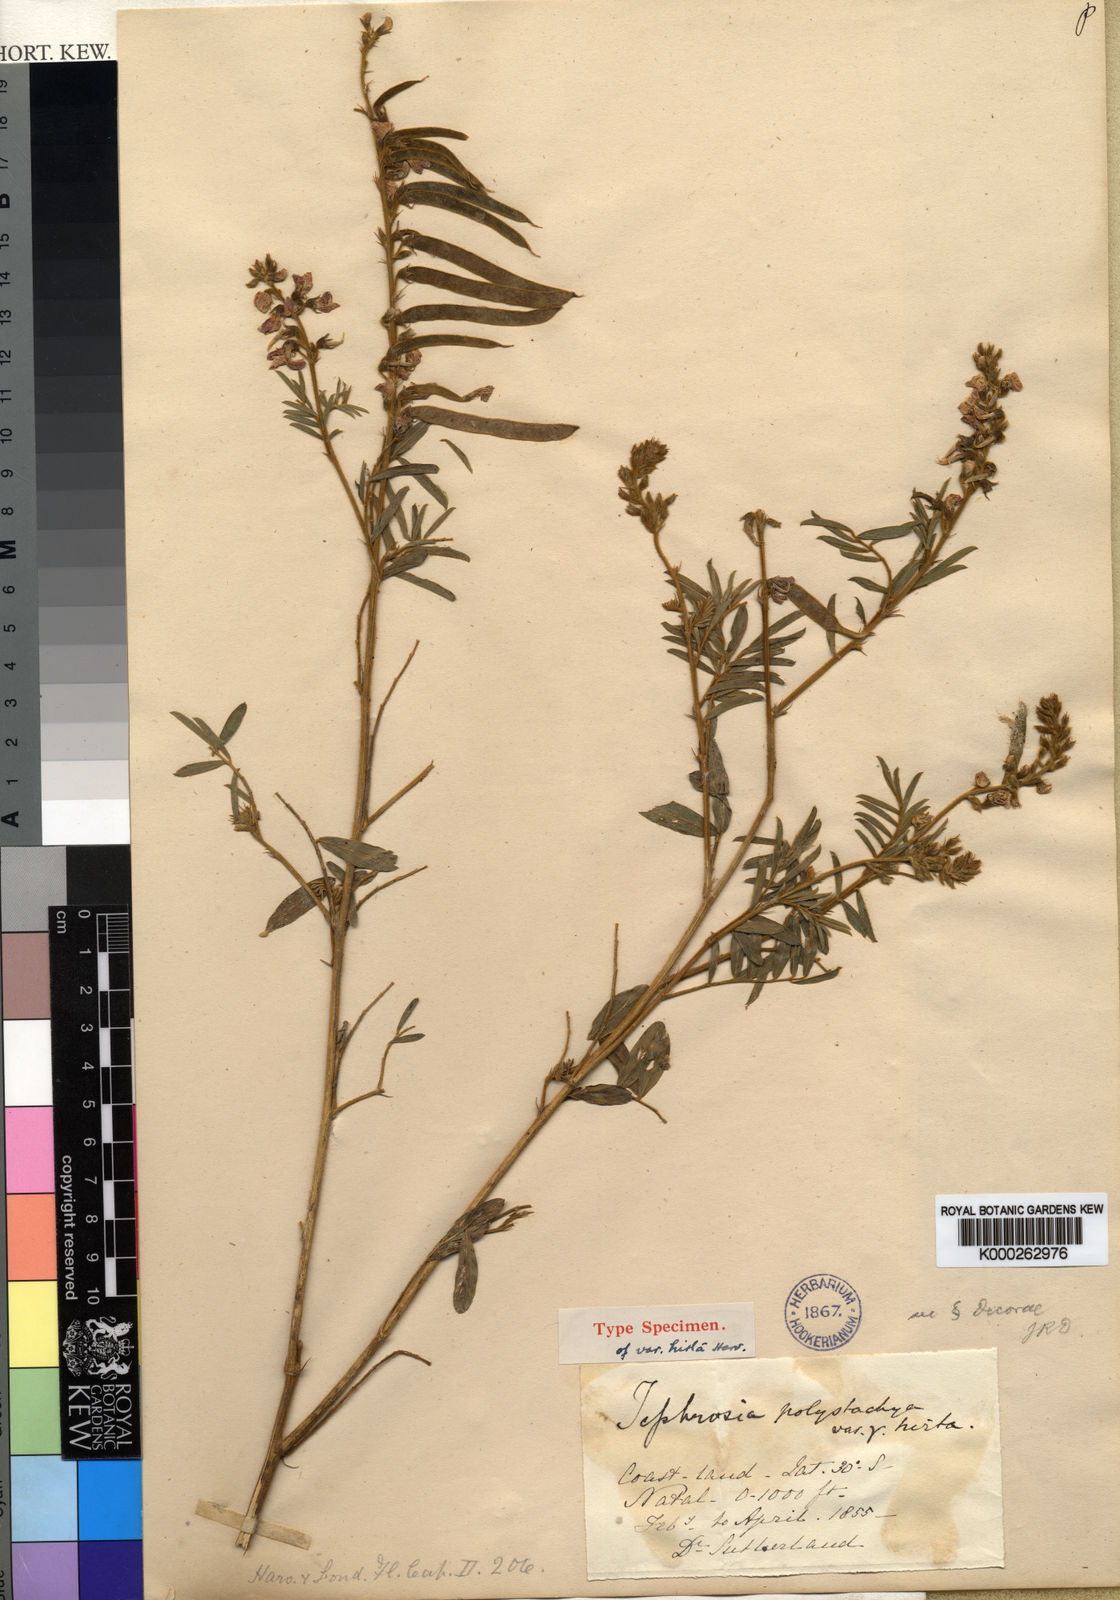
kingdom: Plantae
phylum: Tracheophyta
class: Magnoliopsida
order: Fabales
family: Fabaceae
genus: Tephrosia
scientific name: Tephrosia polystachya
